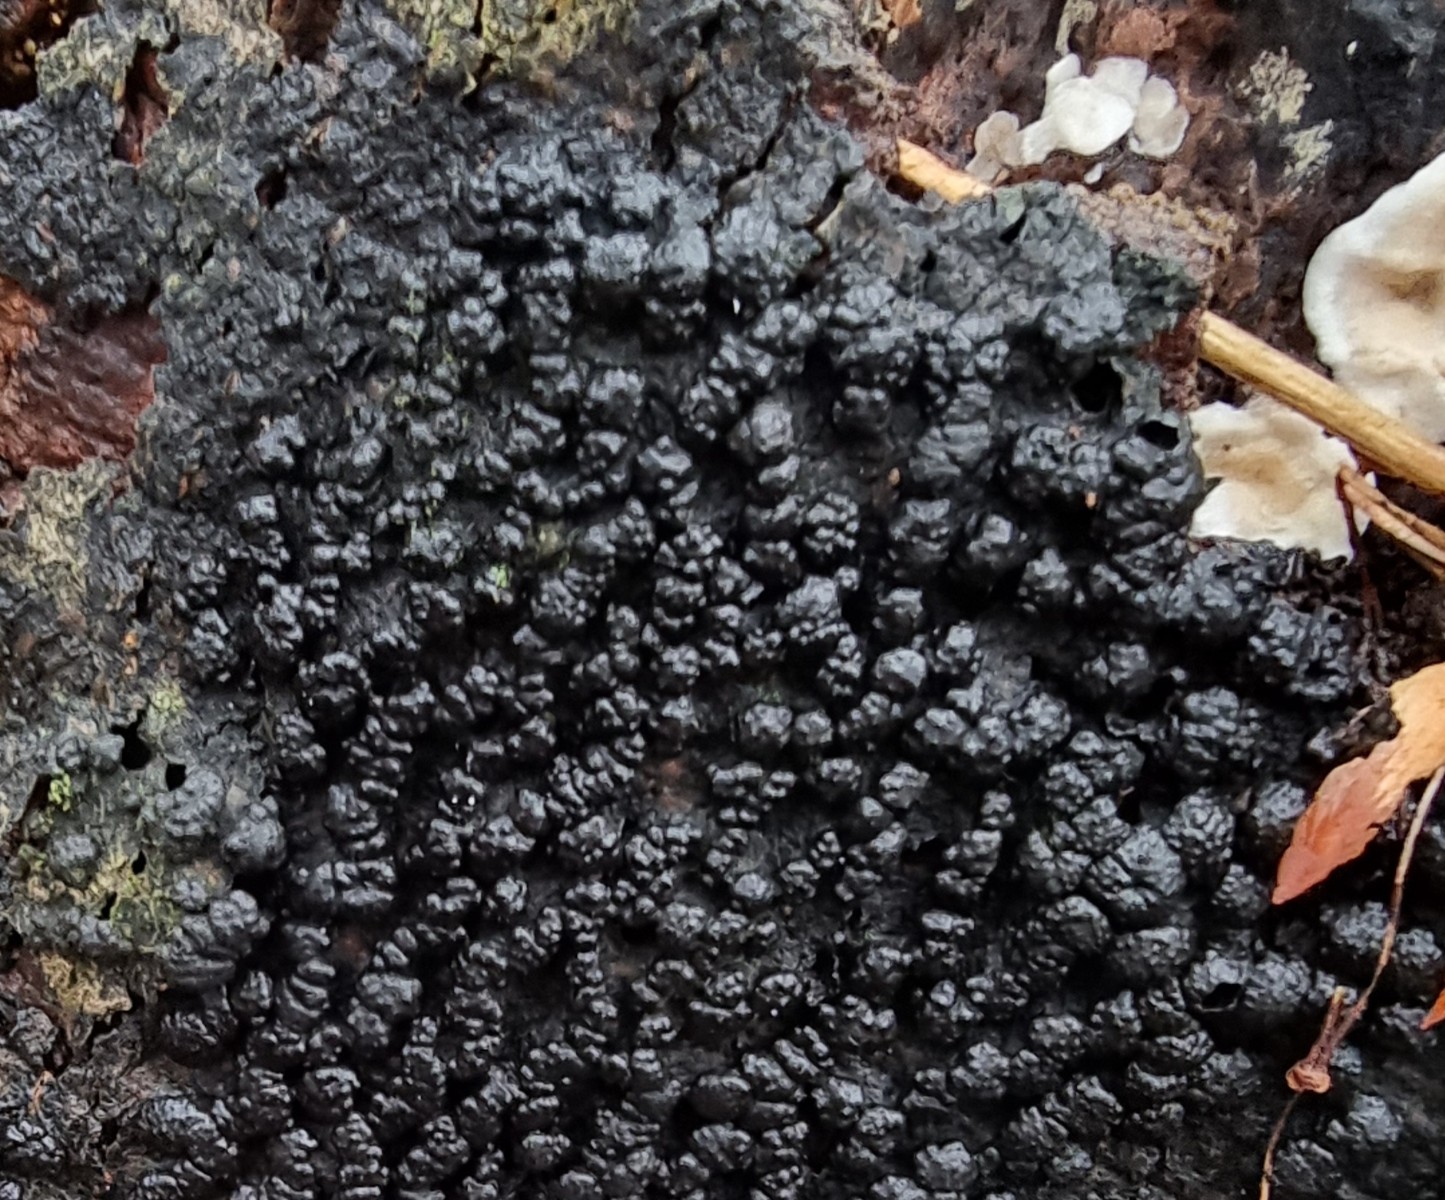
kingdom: Fungi
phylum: Ascomycota
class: Sordariomycetes
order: Xylariales
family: Hypoxylaceae
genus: Jackrogersella
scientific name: Jackrogersella cohaerens
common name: sammenflydende kulbær
